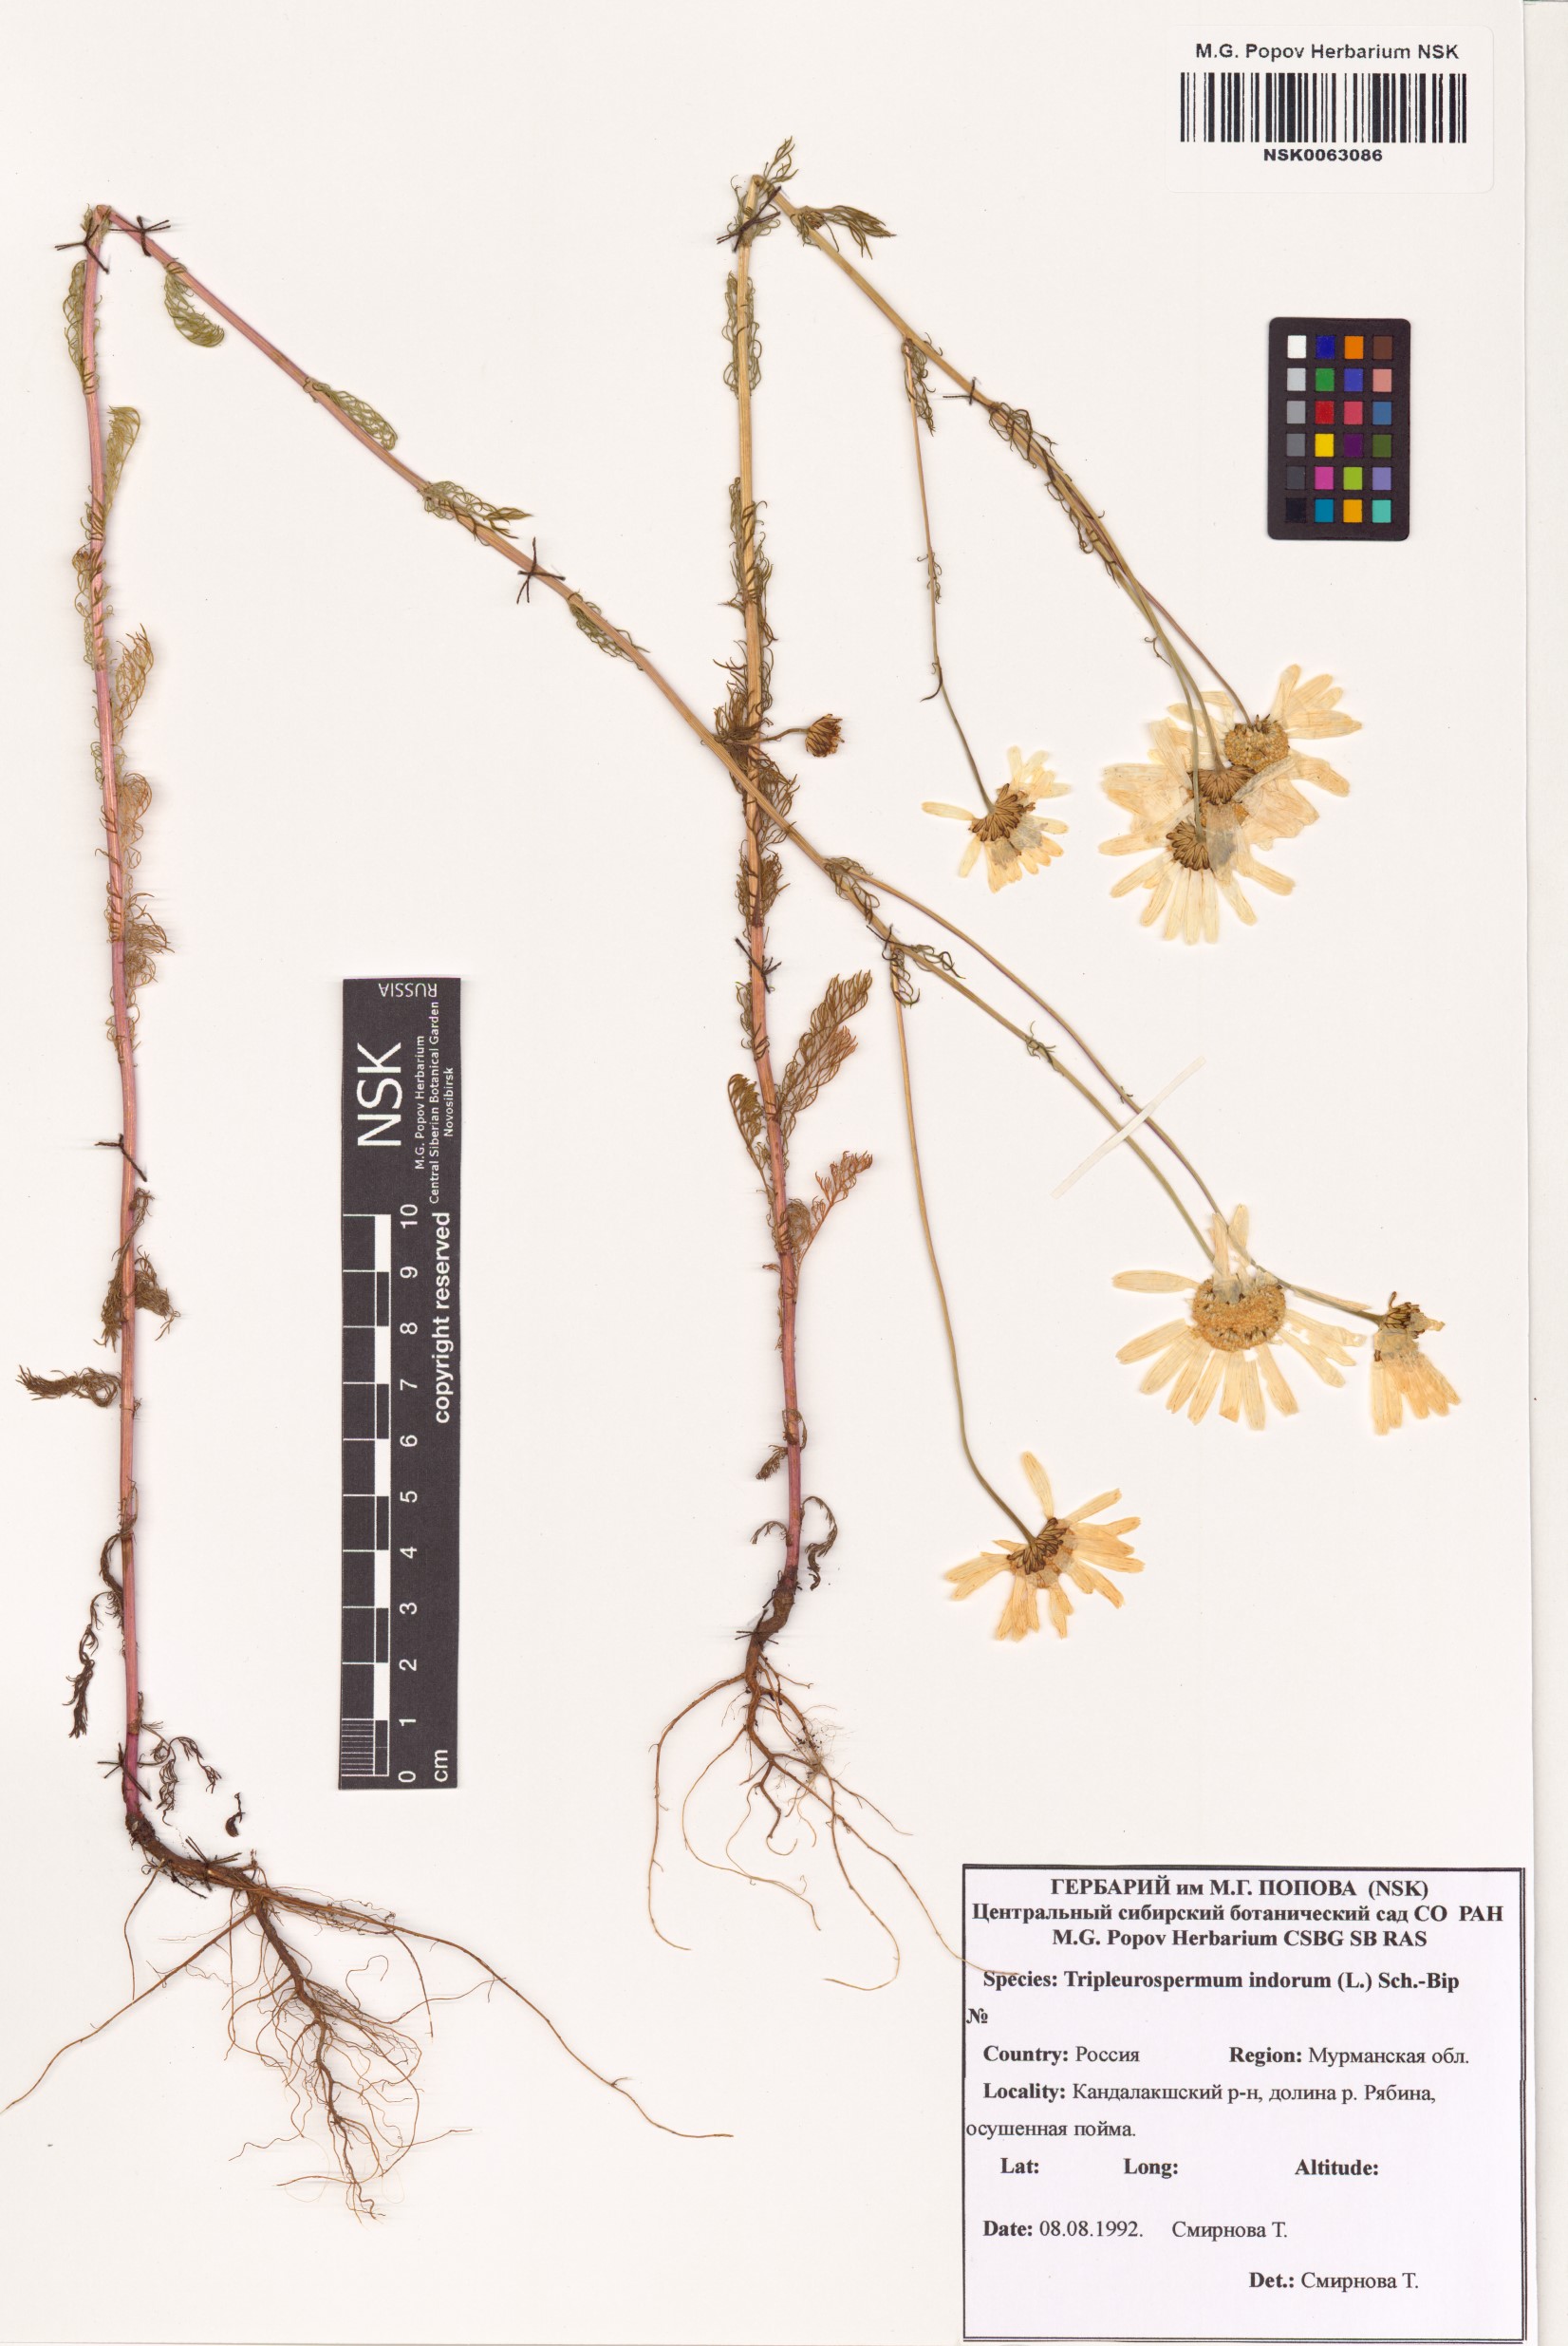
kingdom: Plantae
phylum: Tracheophyta
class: Magnoliopsida
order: Asterales
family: Asteraceae
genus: Tripleurospermum
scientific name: Tripleurospermum inodorum
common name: Scentless mayweed
